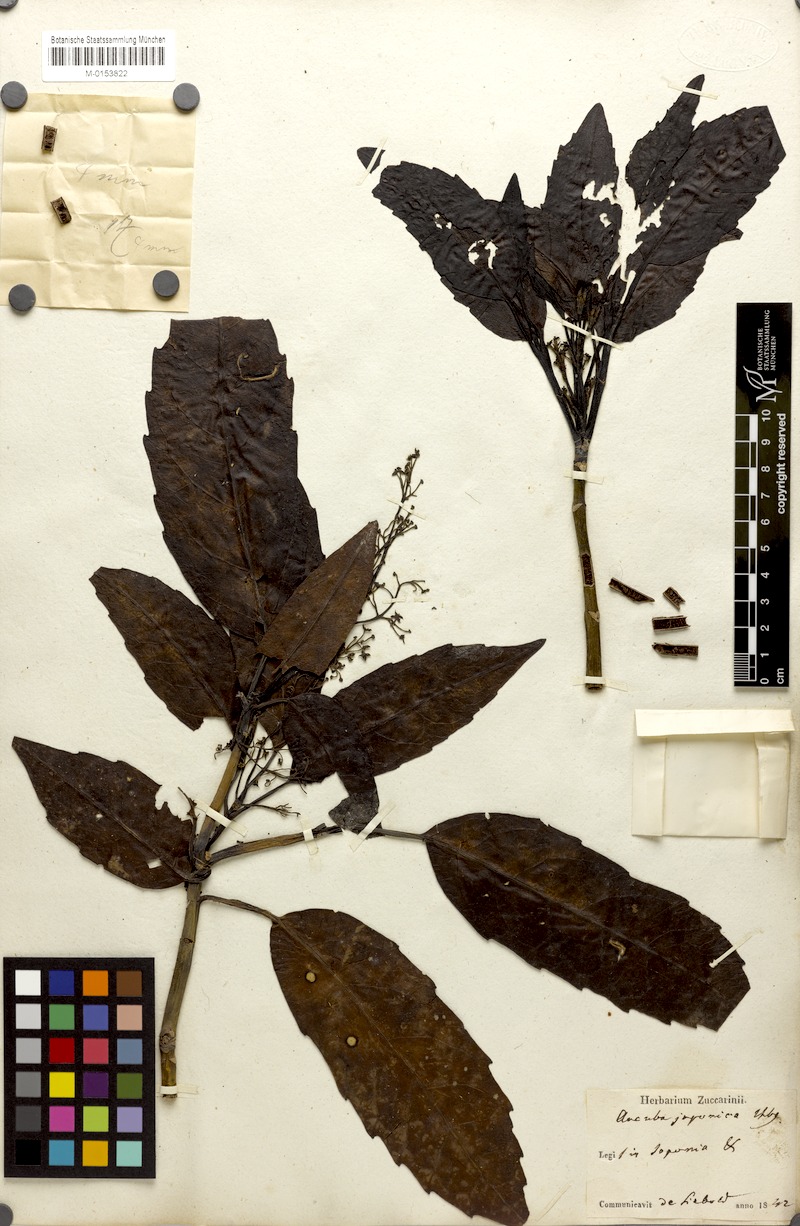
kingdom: Plantae
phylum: Tracheophyta
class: Magnoliopsida
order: Garryales
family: Garryaceae
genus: Aucuba
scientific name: Aucuba japonica
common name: Spotted-laurel
